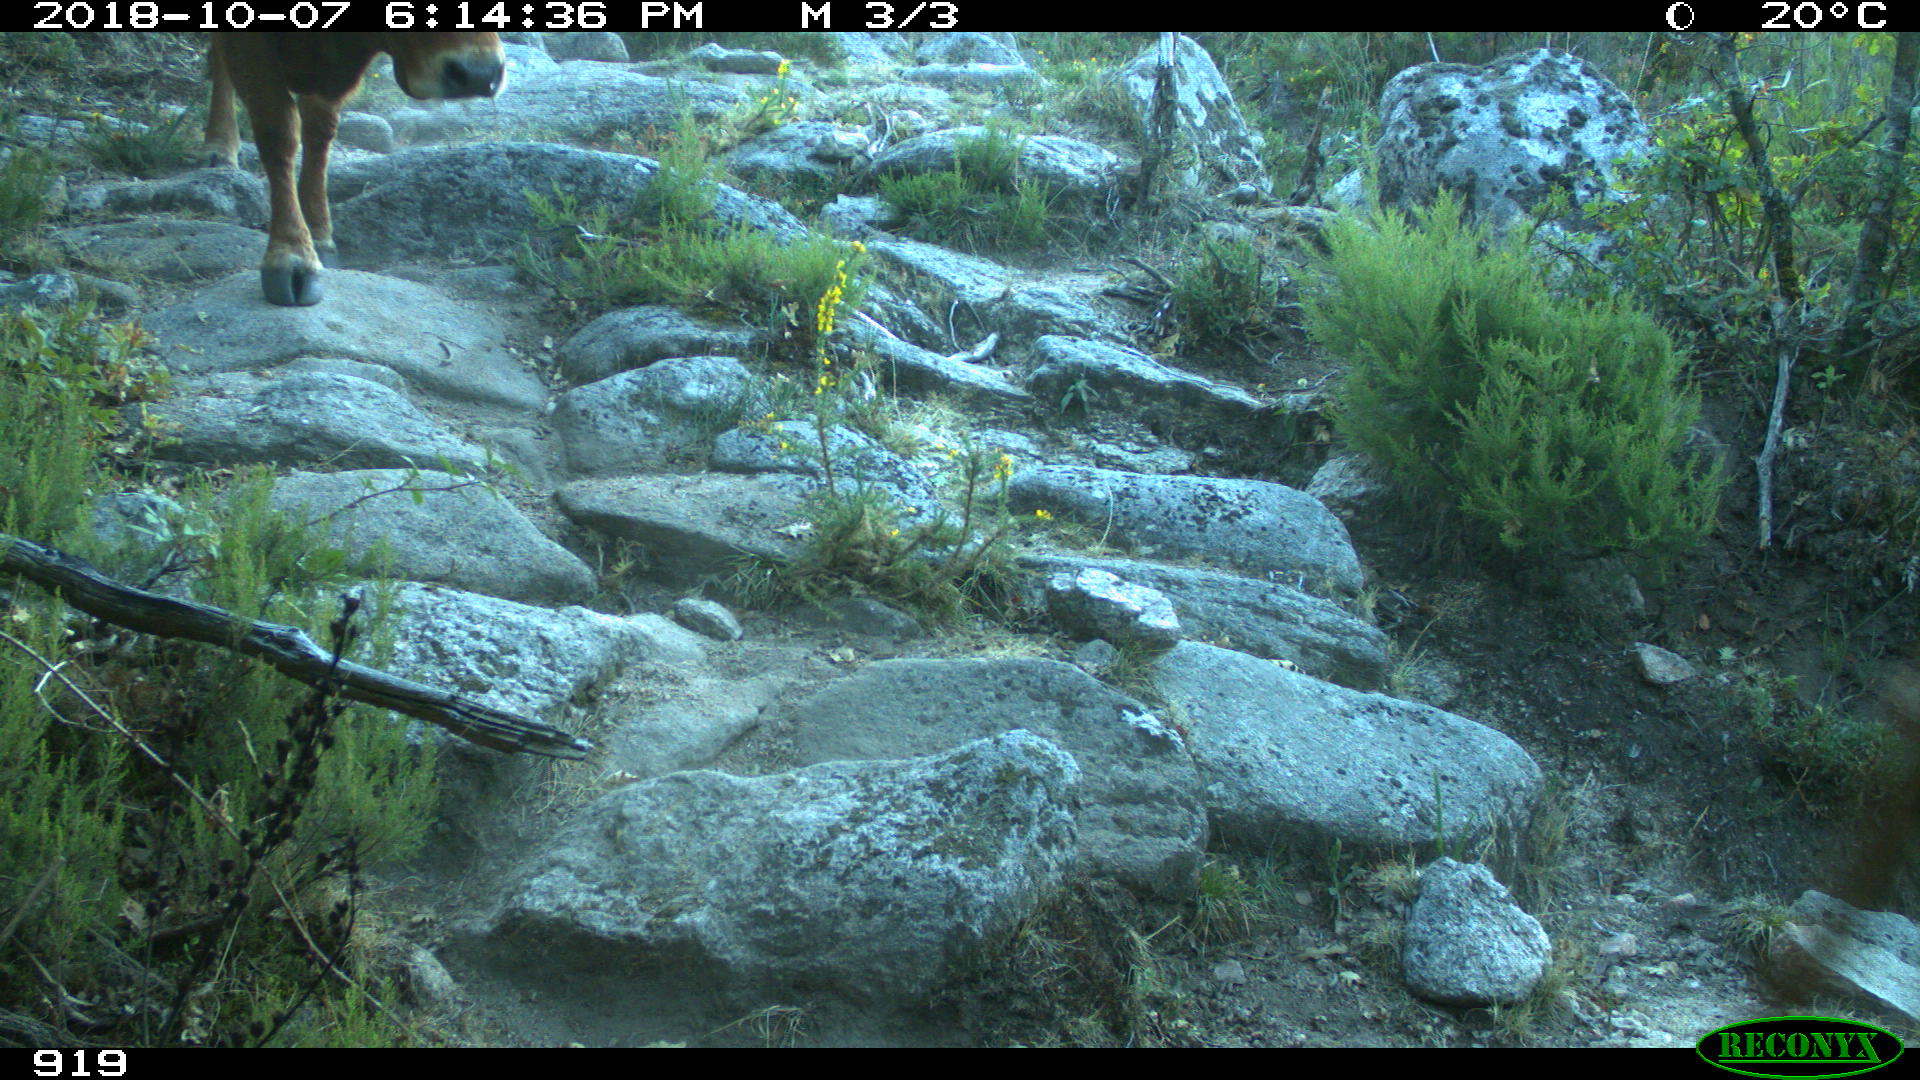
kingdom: Animalia
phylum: Chordata
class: Mammalia
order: Artiodactyla
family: Bovidae
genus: Bos
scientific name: Bos taurus
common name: Domesticated cattle
